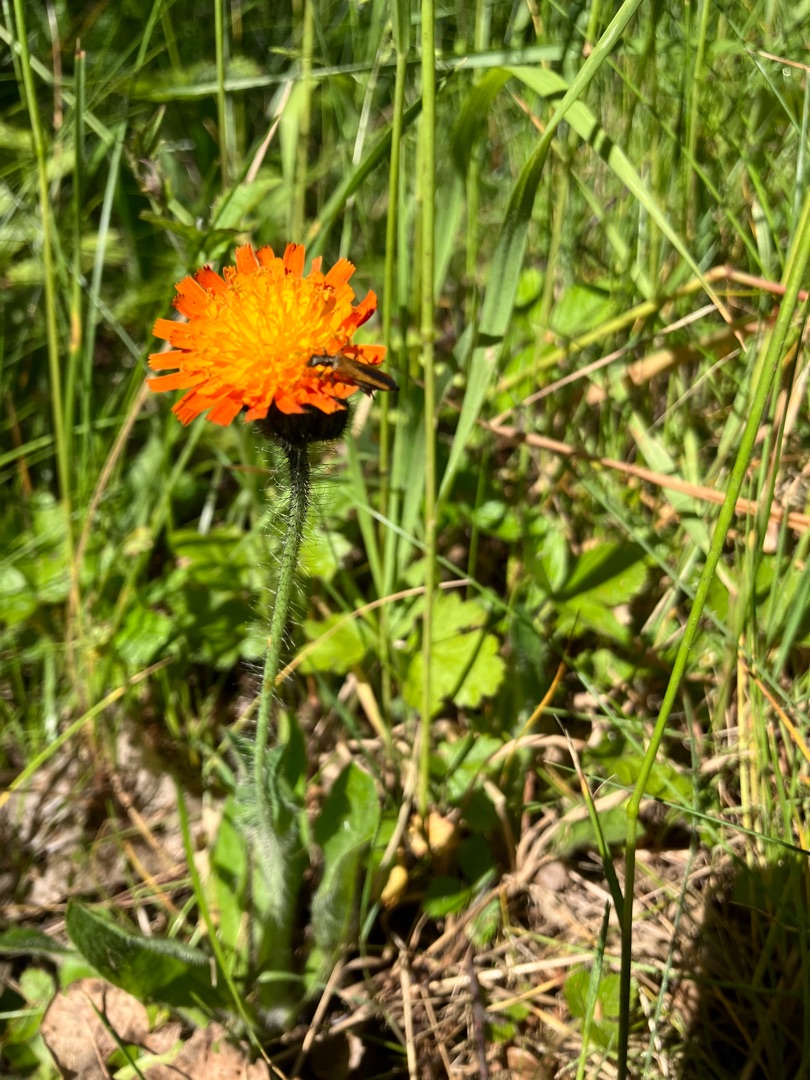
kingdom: Plantae
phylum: Tracheophyta
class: Magnoliopsida
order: Asterales
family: Asteraceae
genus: Pilosella
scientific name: Pilosella aurantiaca
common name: Pomerans-høgeurt
